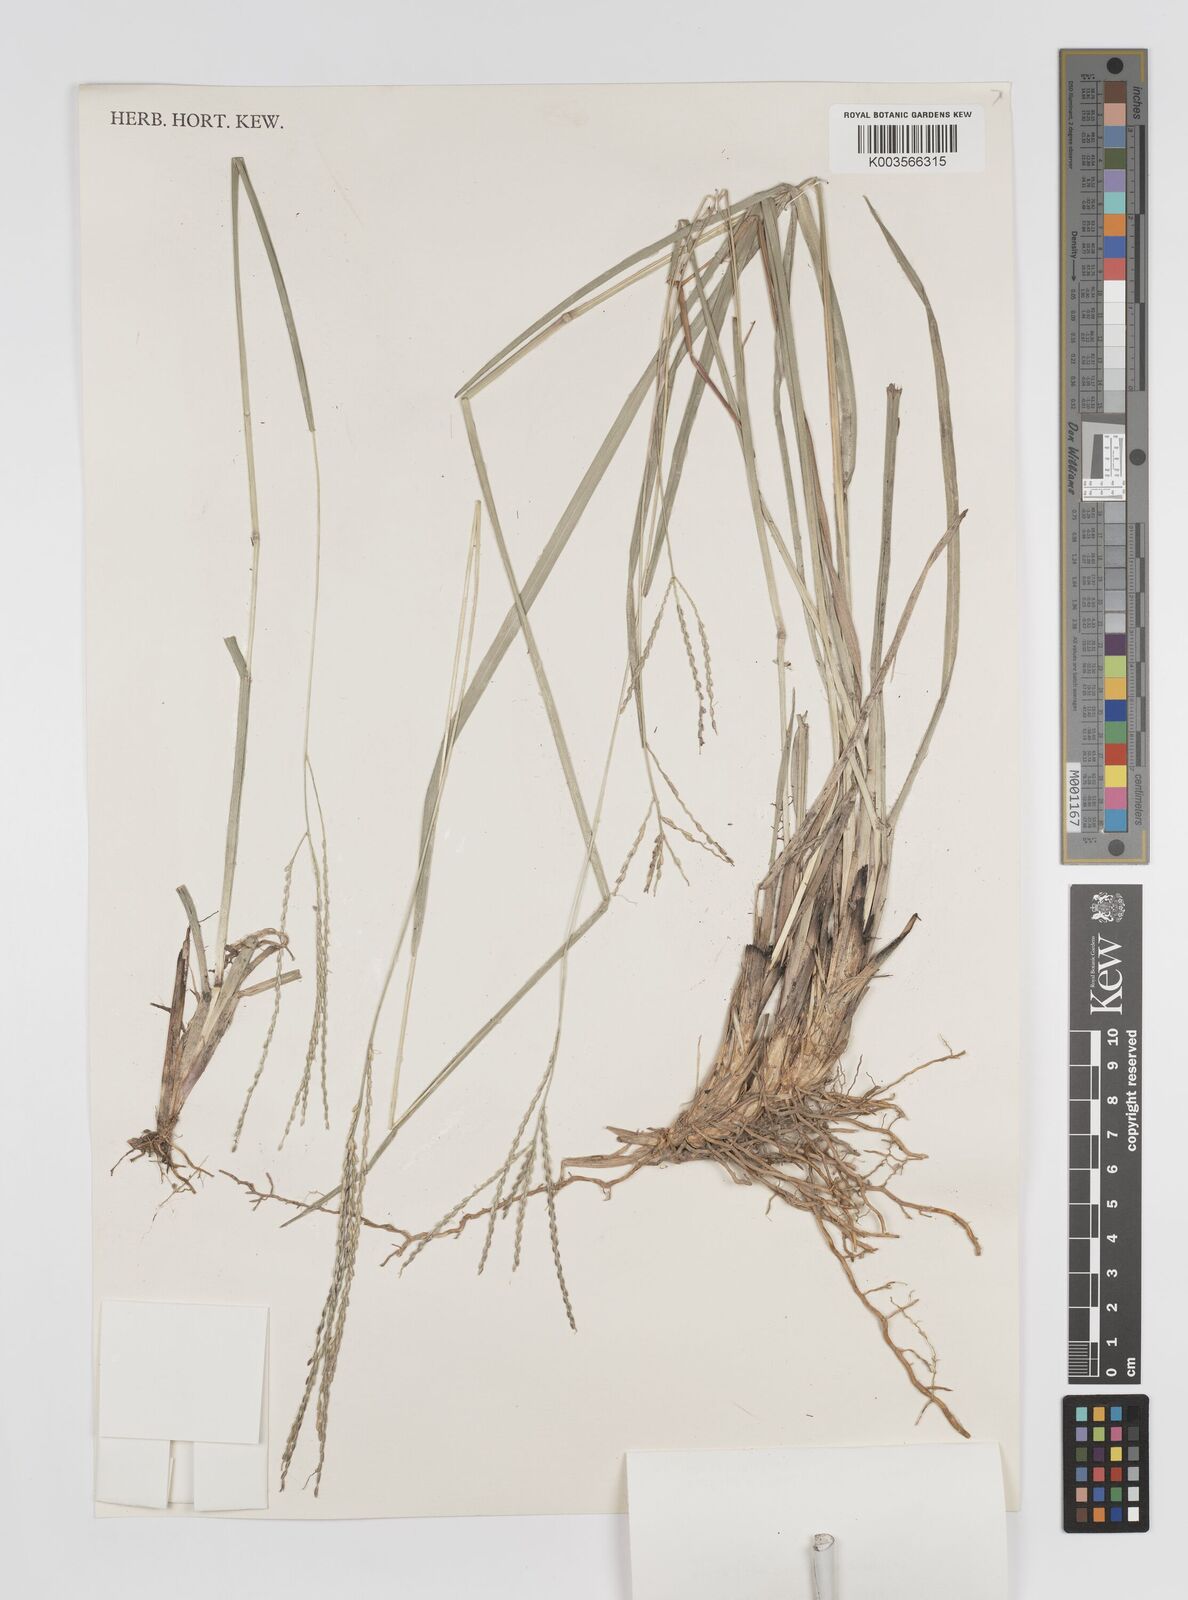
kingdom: Plantae
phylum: Tracheophyta
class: Liliopsida
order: Poales
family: Poaceae
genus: Axonopus
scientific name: Axonopus
